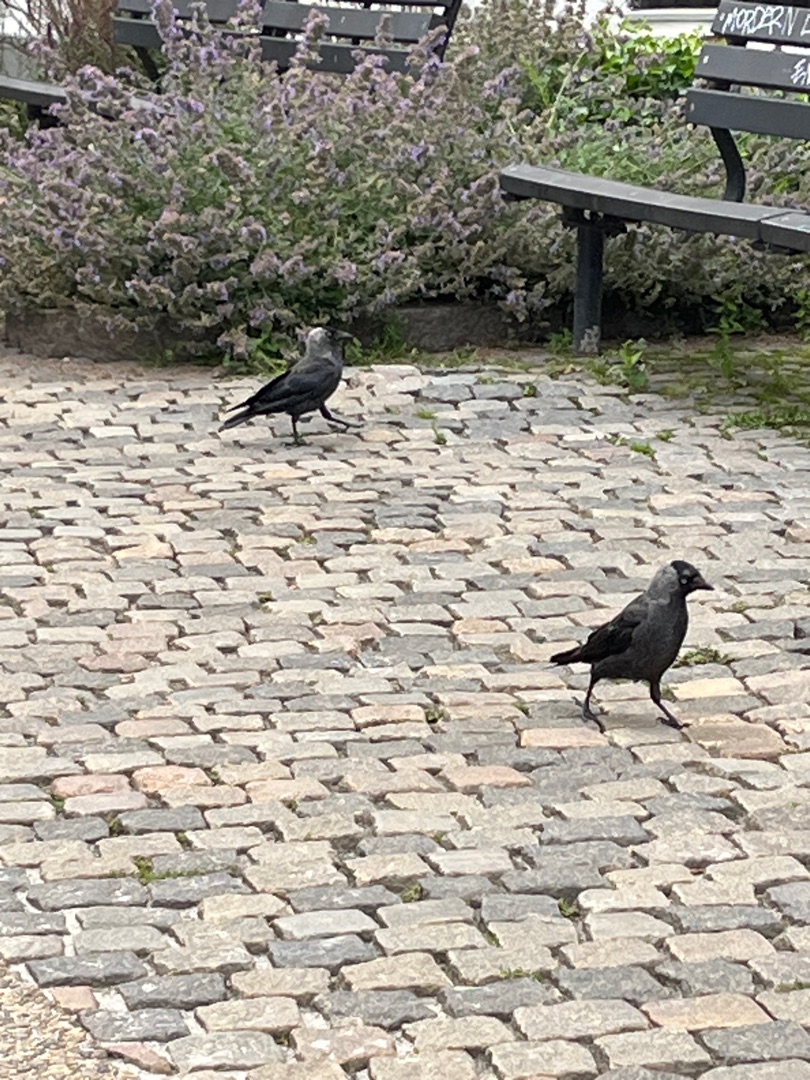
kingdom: Animalia
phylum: Chordata
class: Aves
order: Passeriformes
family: Corvidae
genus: Coloeus
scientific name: Coloeus monedula
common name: Allike
